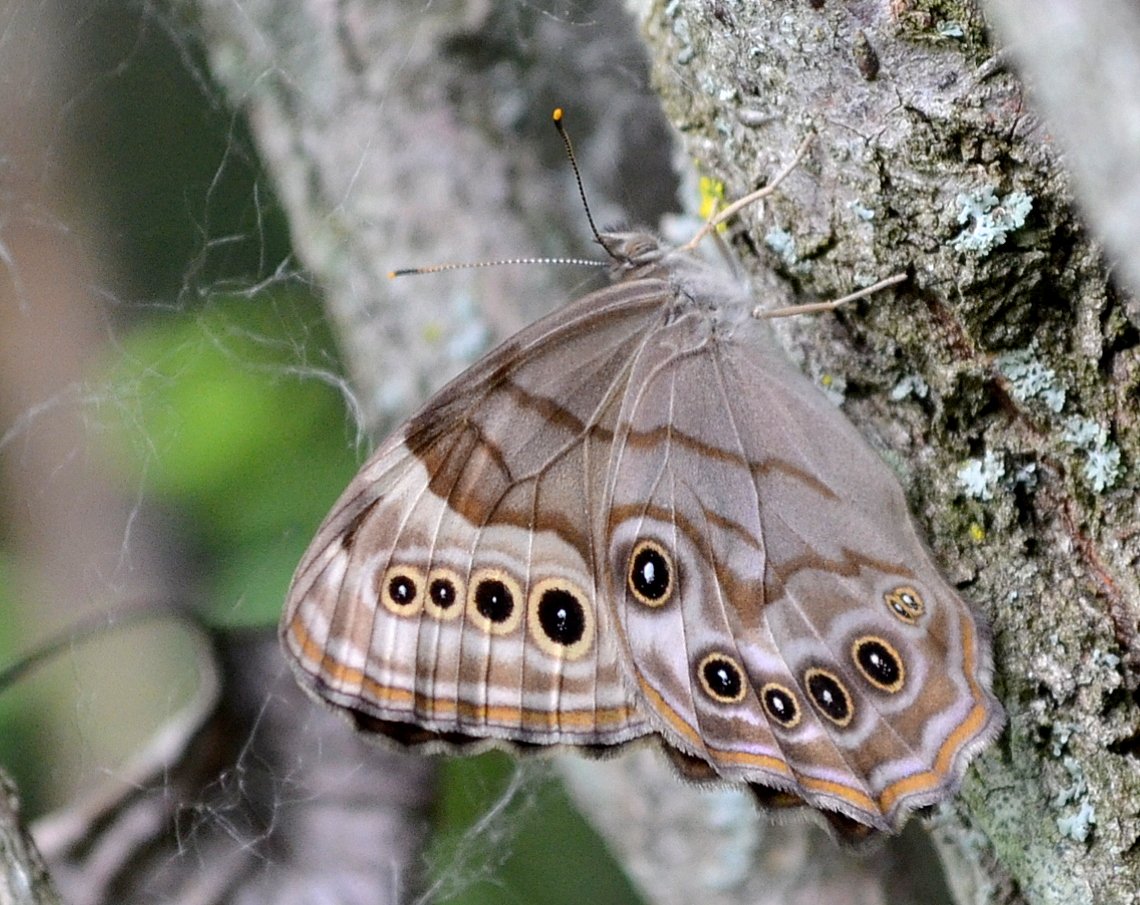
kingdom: Animalia
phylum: Arthropoda
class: Insecta
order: Lepidoptera
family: Nymphalidae
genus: Lethe
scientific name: Lethe anthedon
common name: Northern Pearly-Eye
